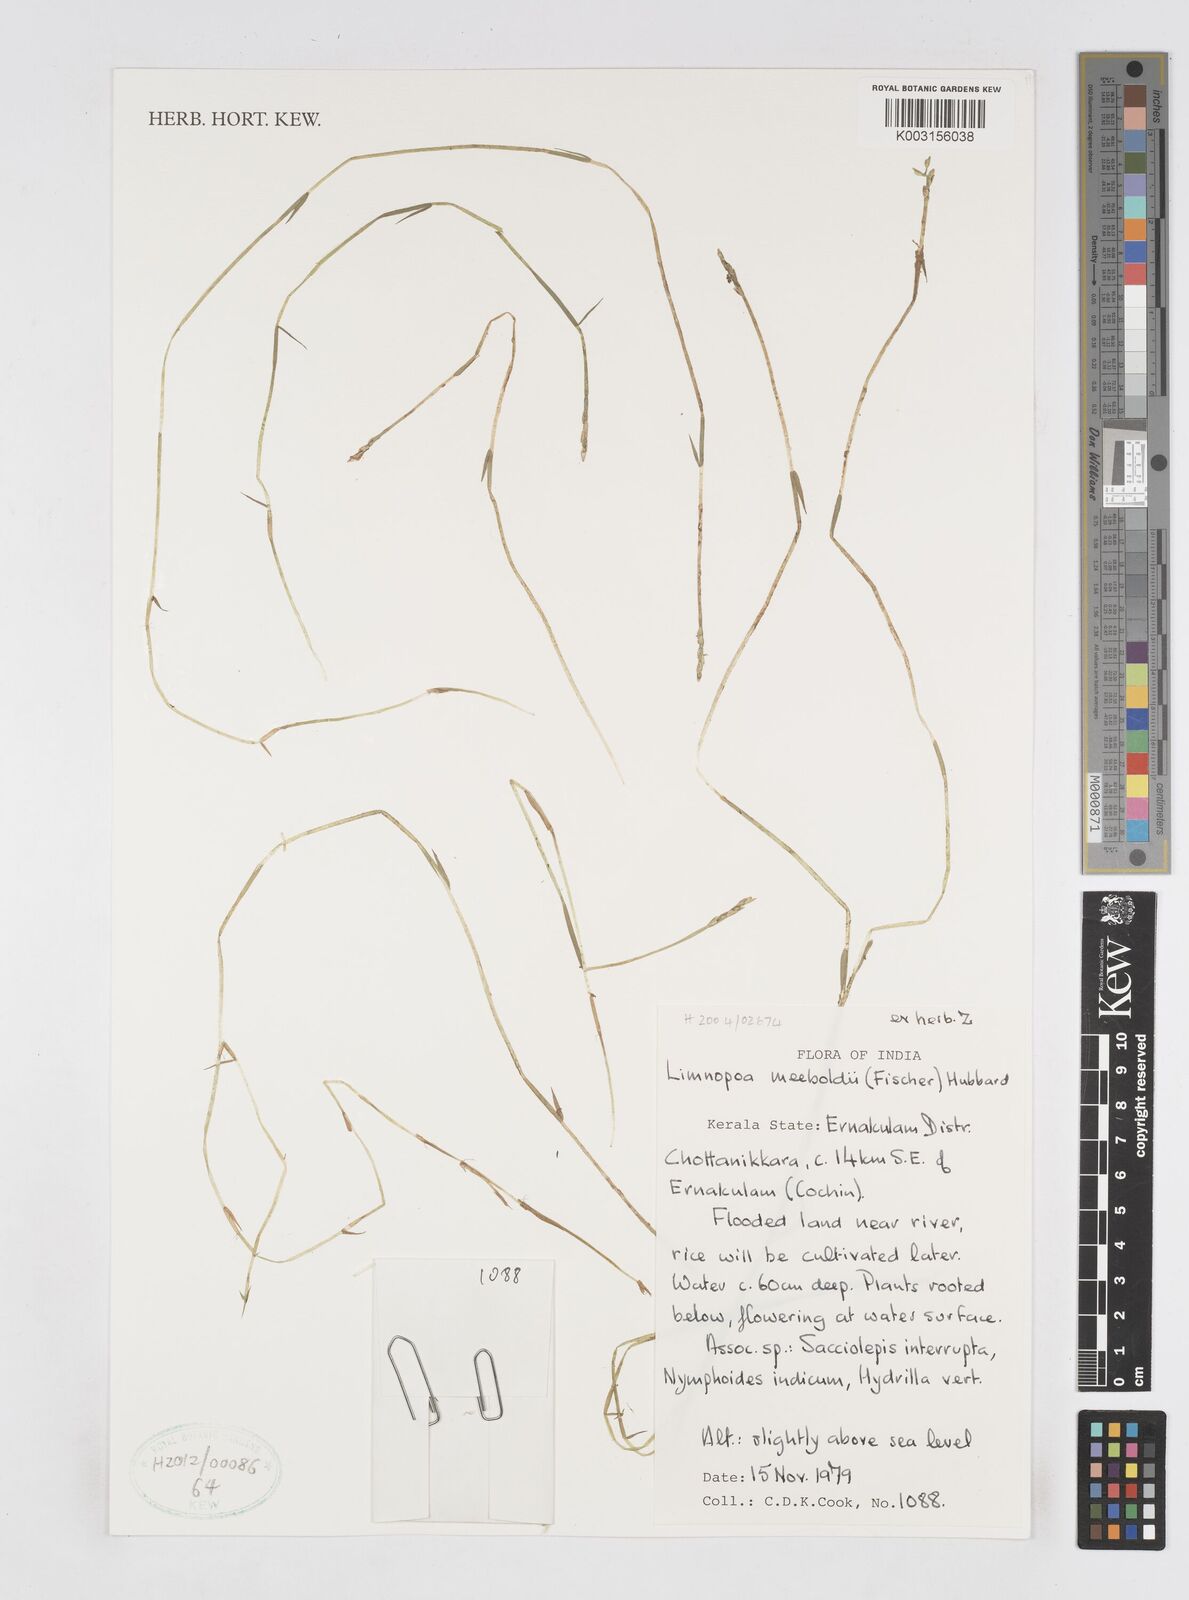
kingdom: Plantae
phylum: Tracheophyta
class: Liliopsida
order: Poales
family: Poaceae
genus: Limnopoa
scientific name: Limnopoa meeboldii
